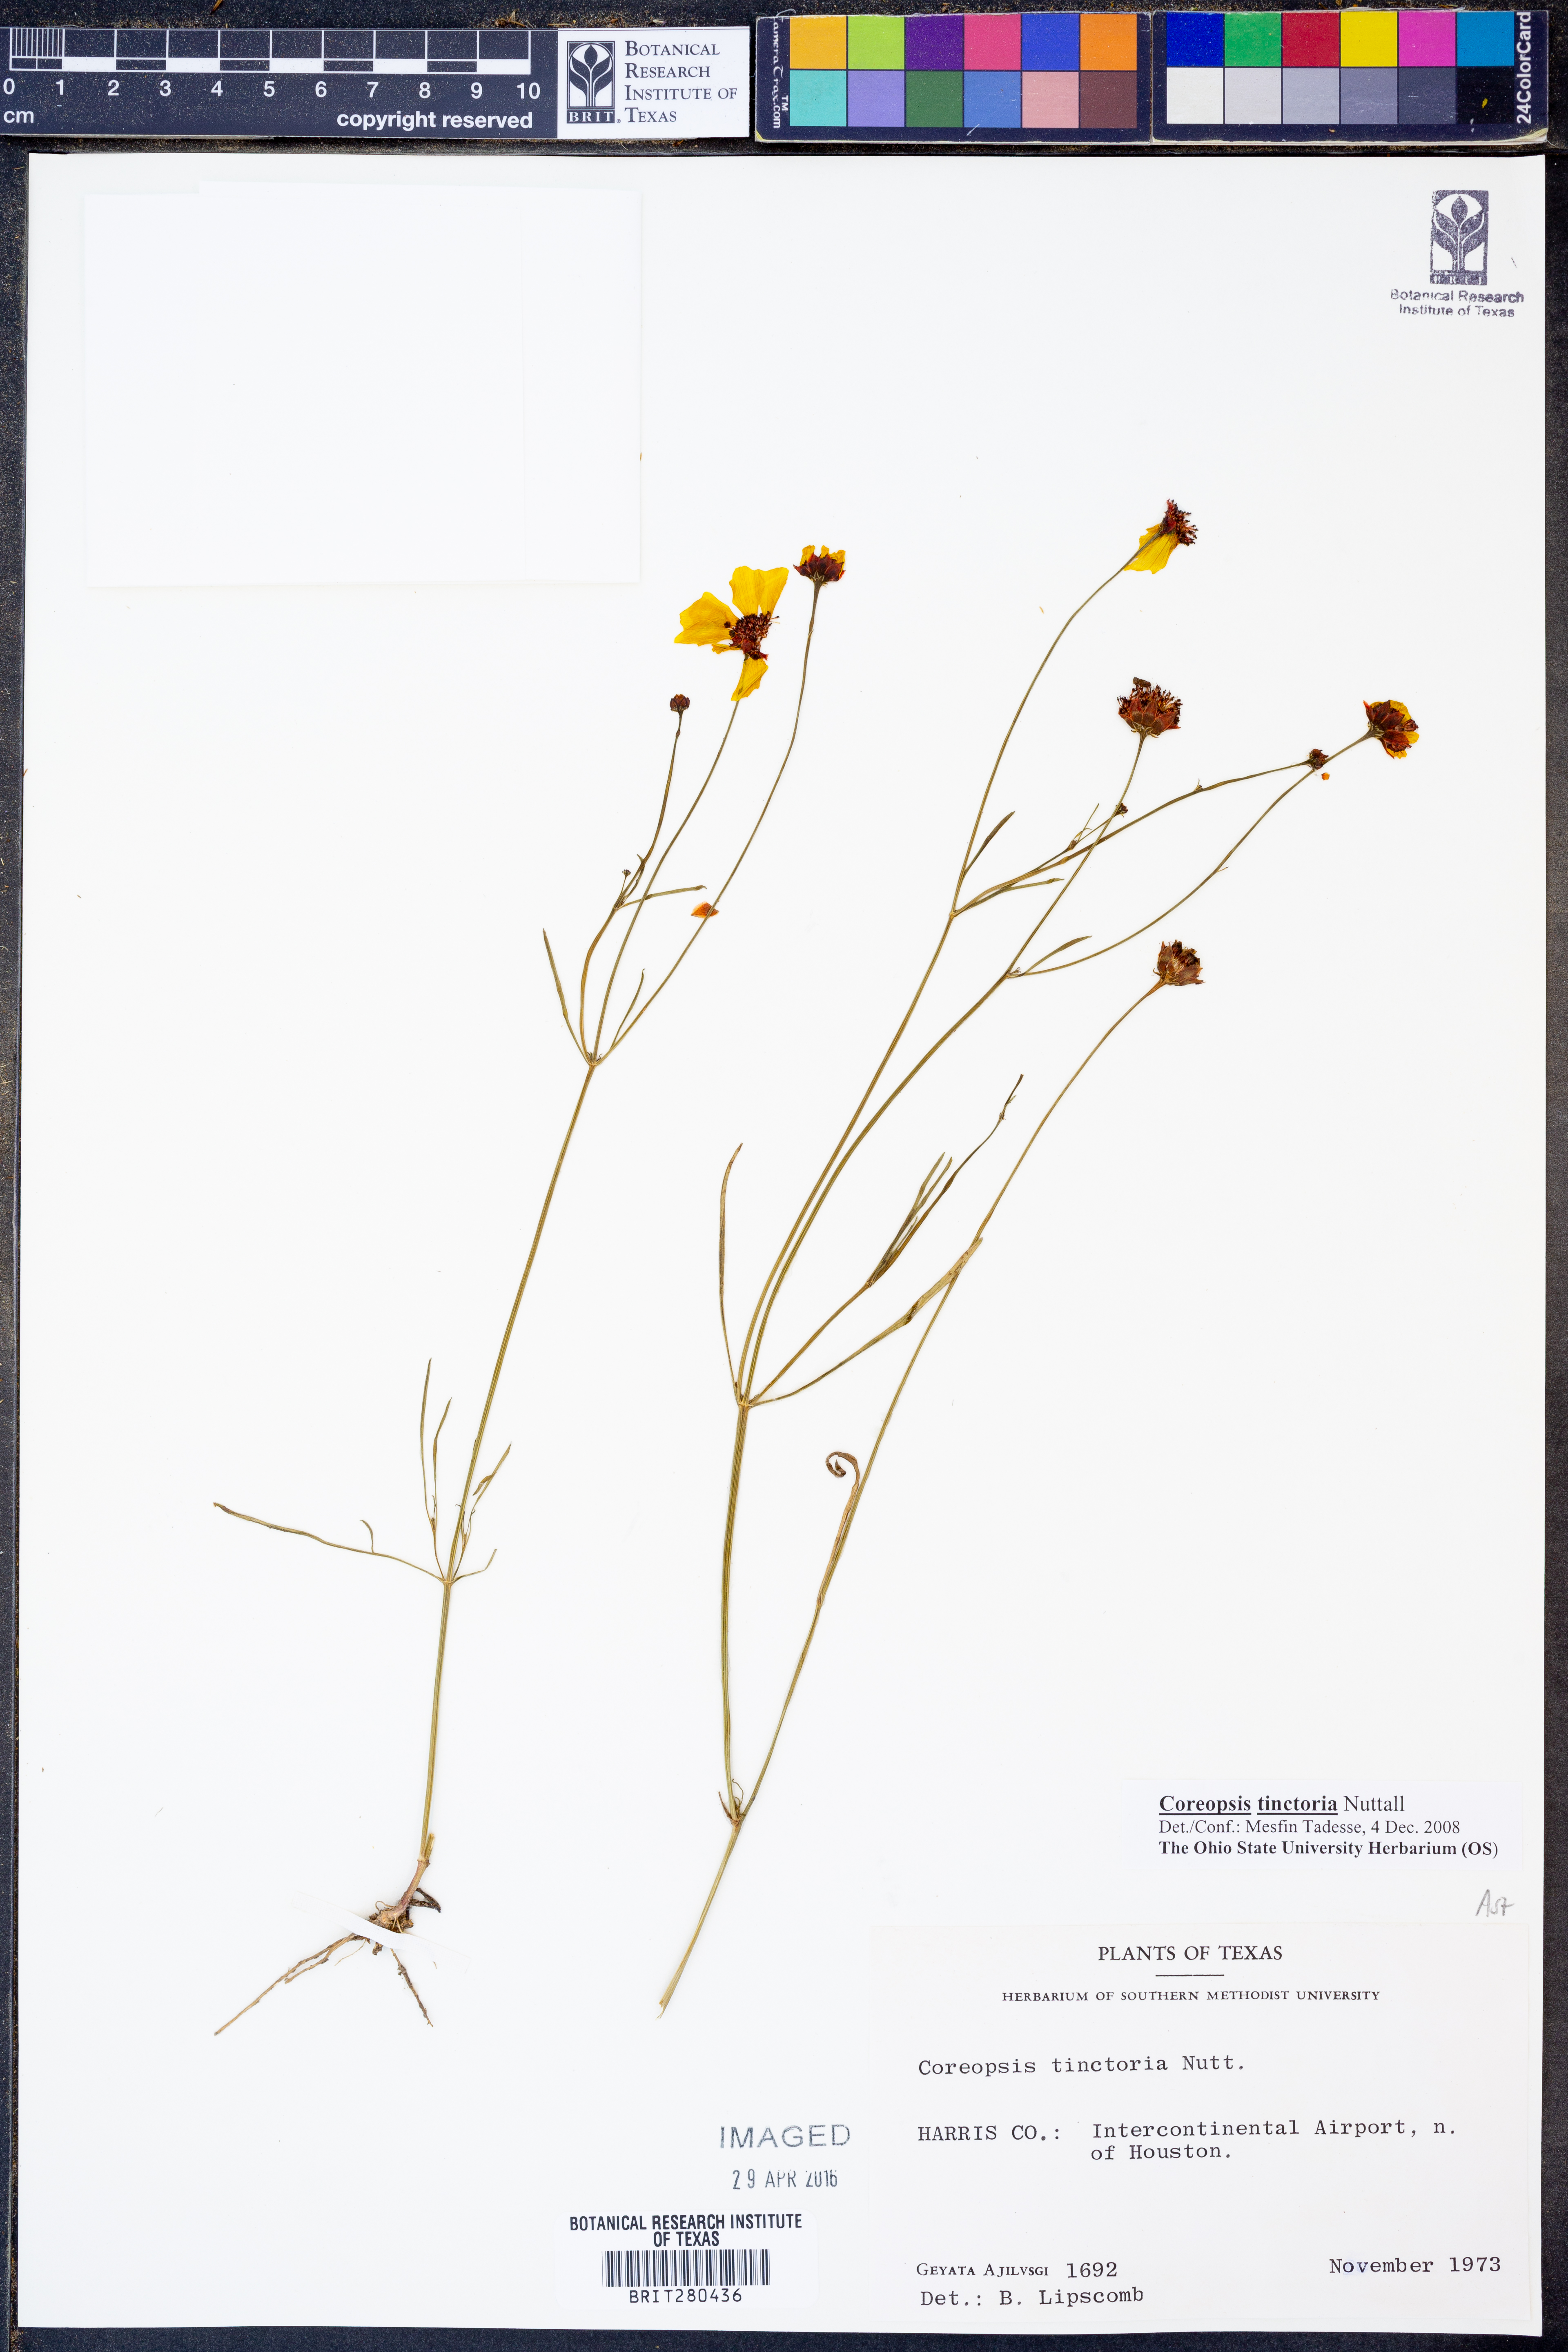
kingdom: Plantae
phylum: Tracheophyta
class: Magnoliopsida
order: Asterales
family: Asteraceae
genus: Coreopsis
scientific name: Coreopsis tinctoria
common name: Garden tickseed
